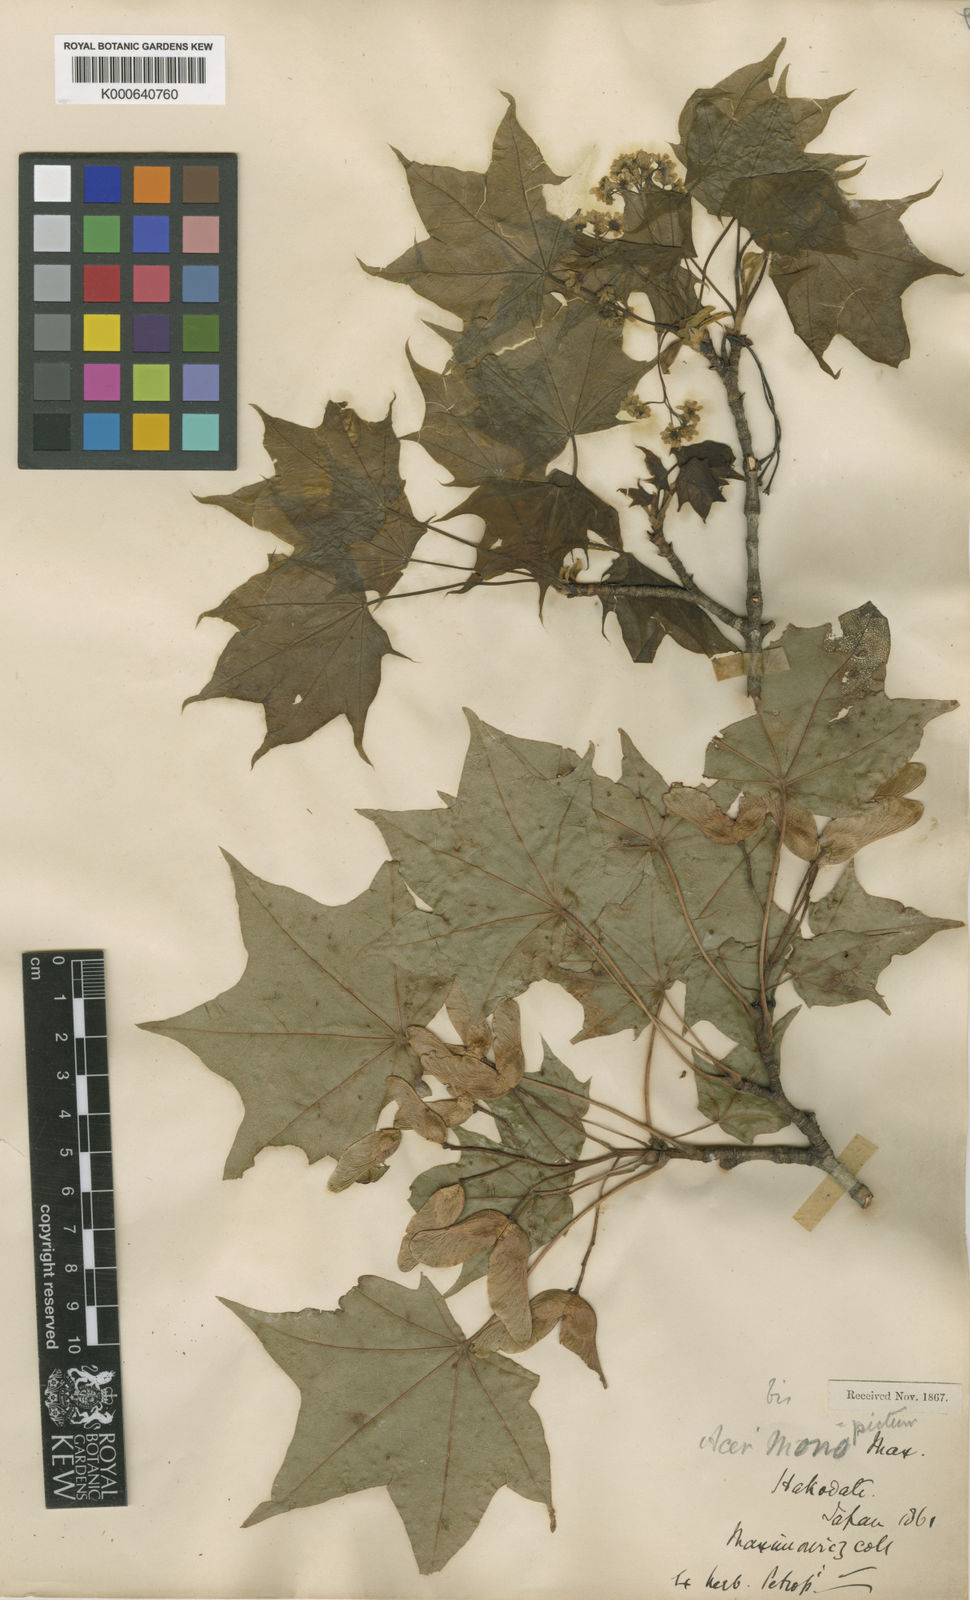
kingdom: Plantae
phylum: Tracheophyta
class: Magnoliopsida
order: Sapindales
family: Sapindaceae
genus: Acer
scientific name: Acer pictum
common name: The painted maple
